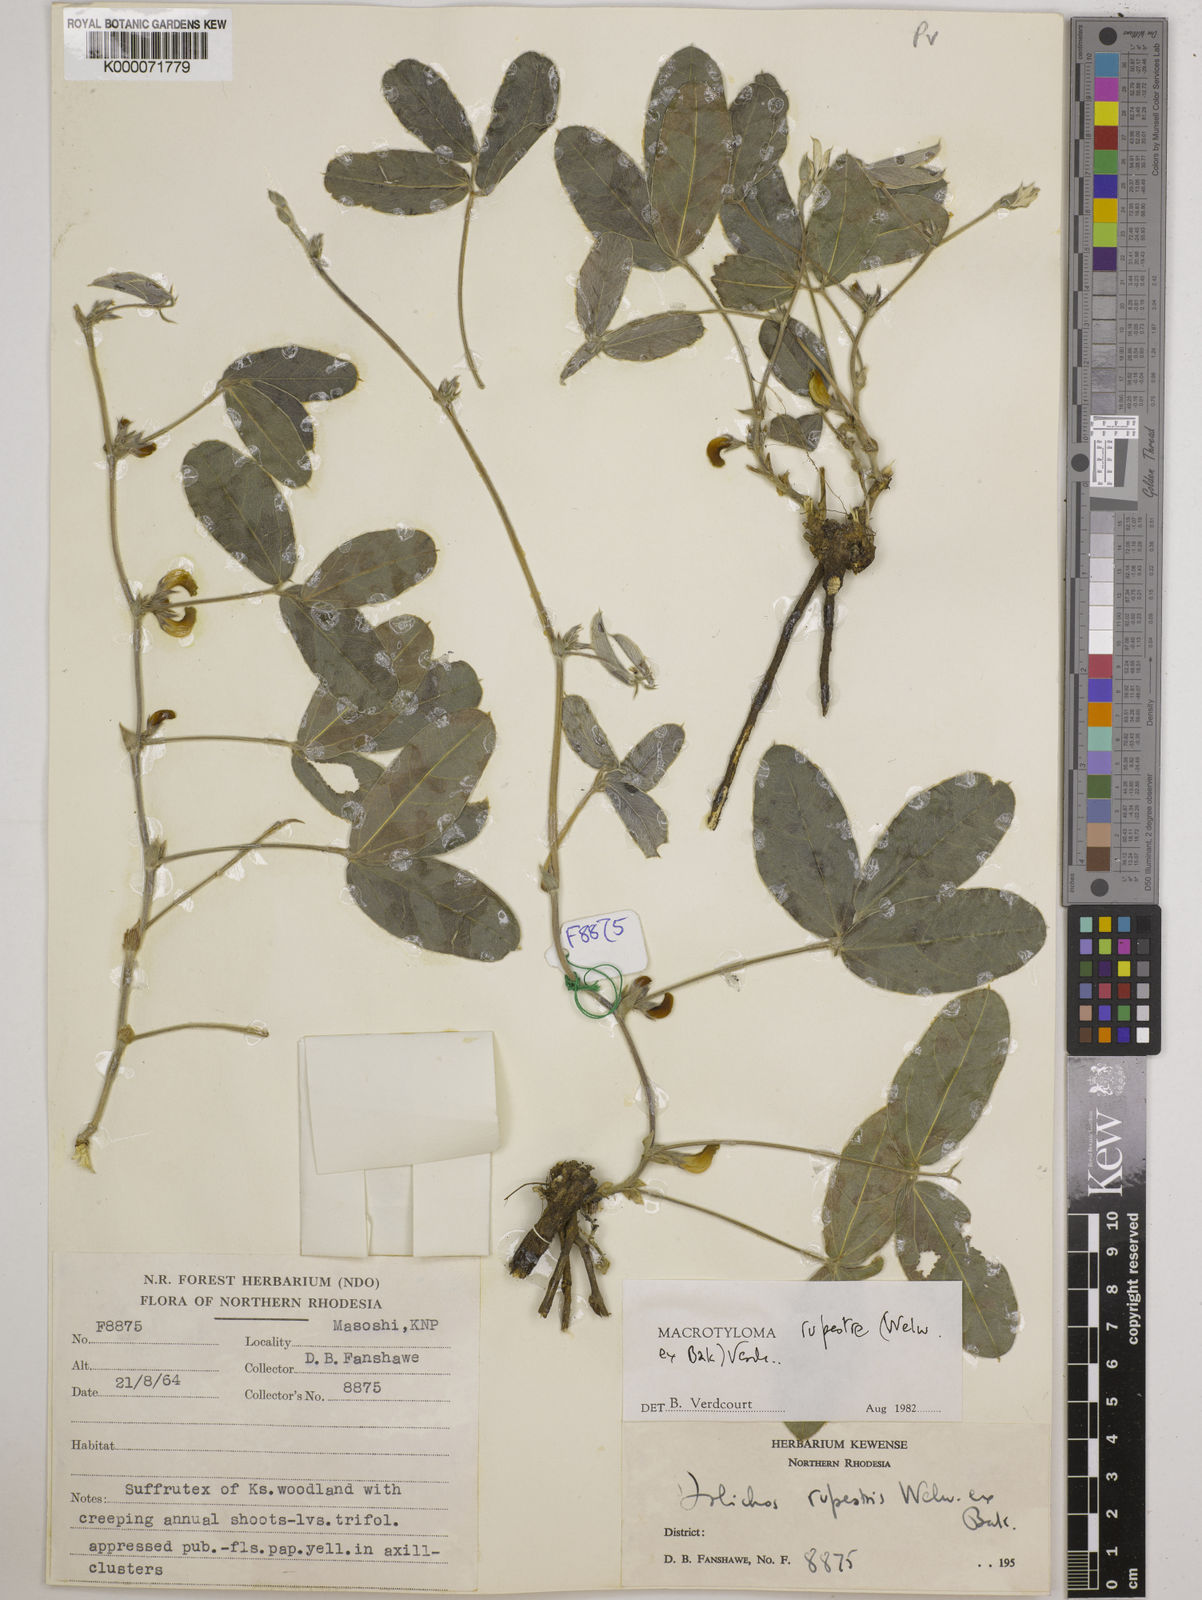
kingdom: Plantae
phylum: Tracheophyta
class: Magnoliopsida
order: Fabales
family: Fabaceae
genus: Macrotyloma
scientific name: Macrotyloma rupestre
